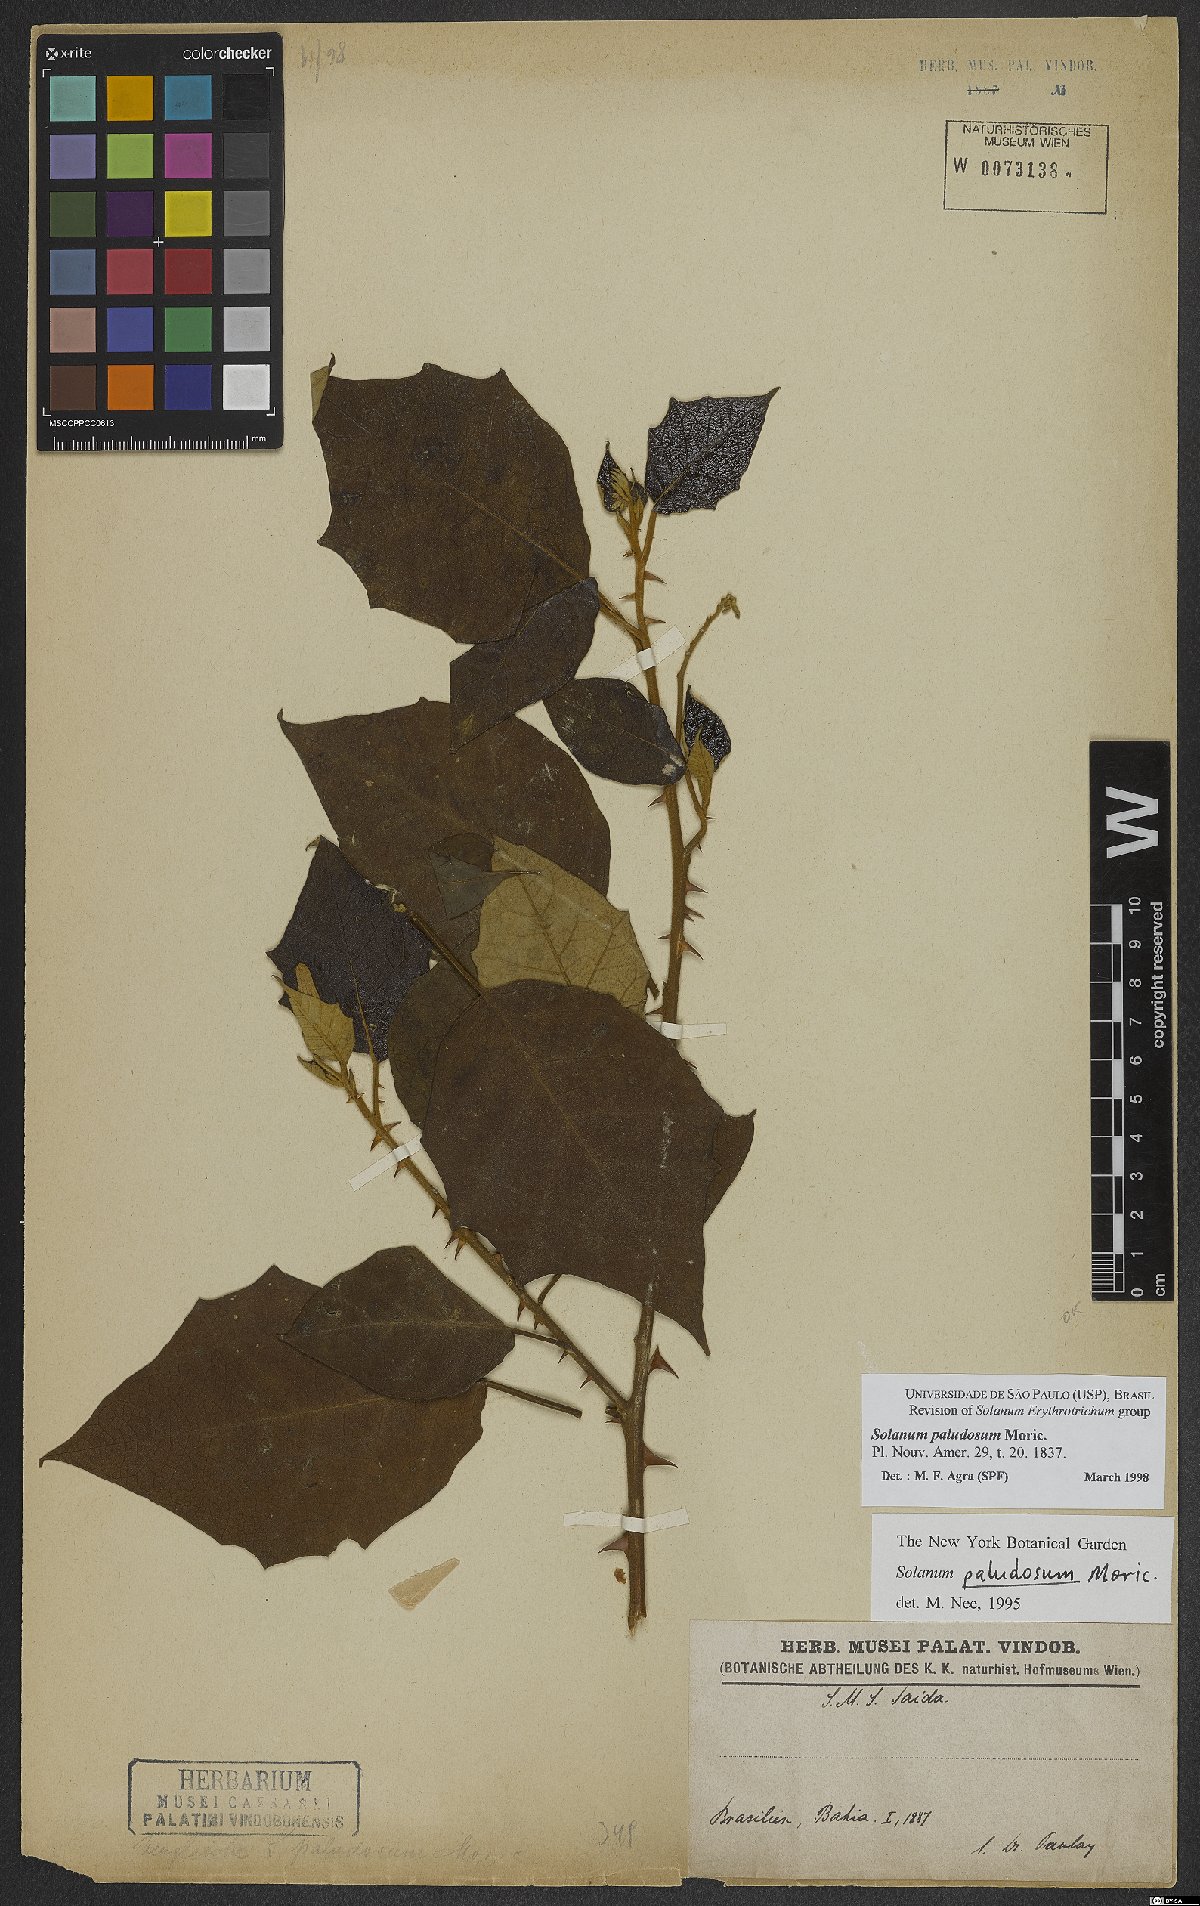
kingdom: Plantae
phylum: Tracheophyta
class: Magnoliopsida
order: Solanales
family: Solanaceae
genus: Solanum
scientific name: Solanum paludosum
